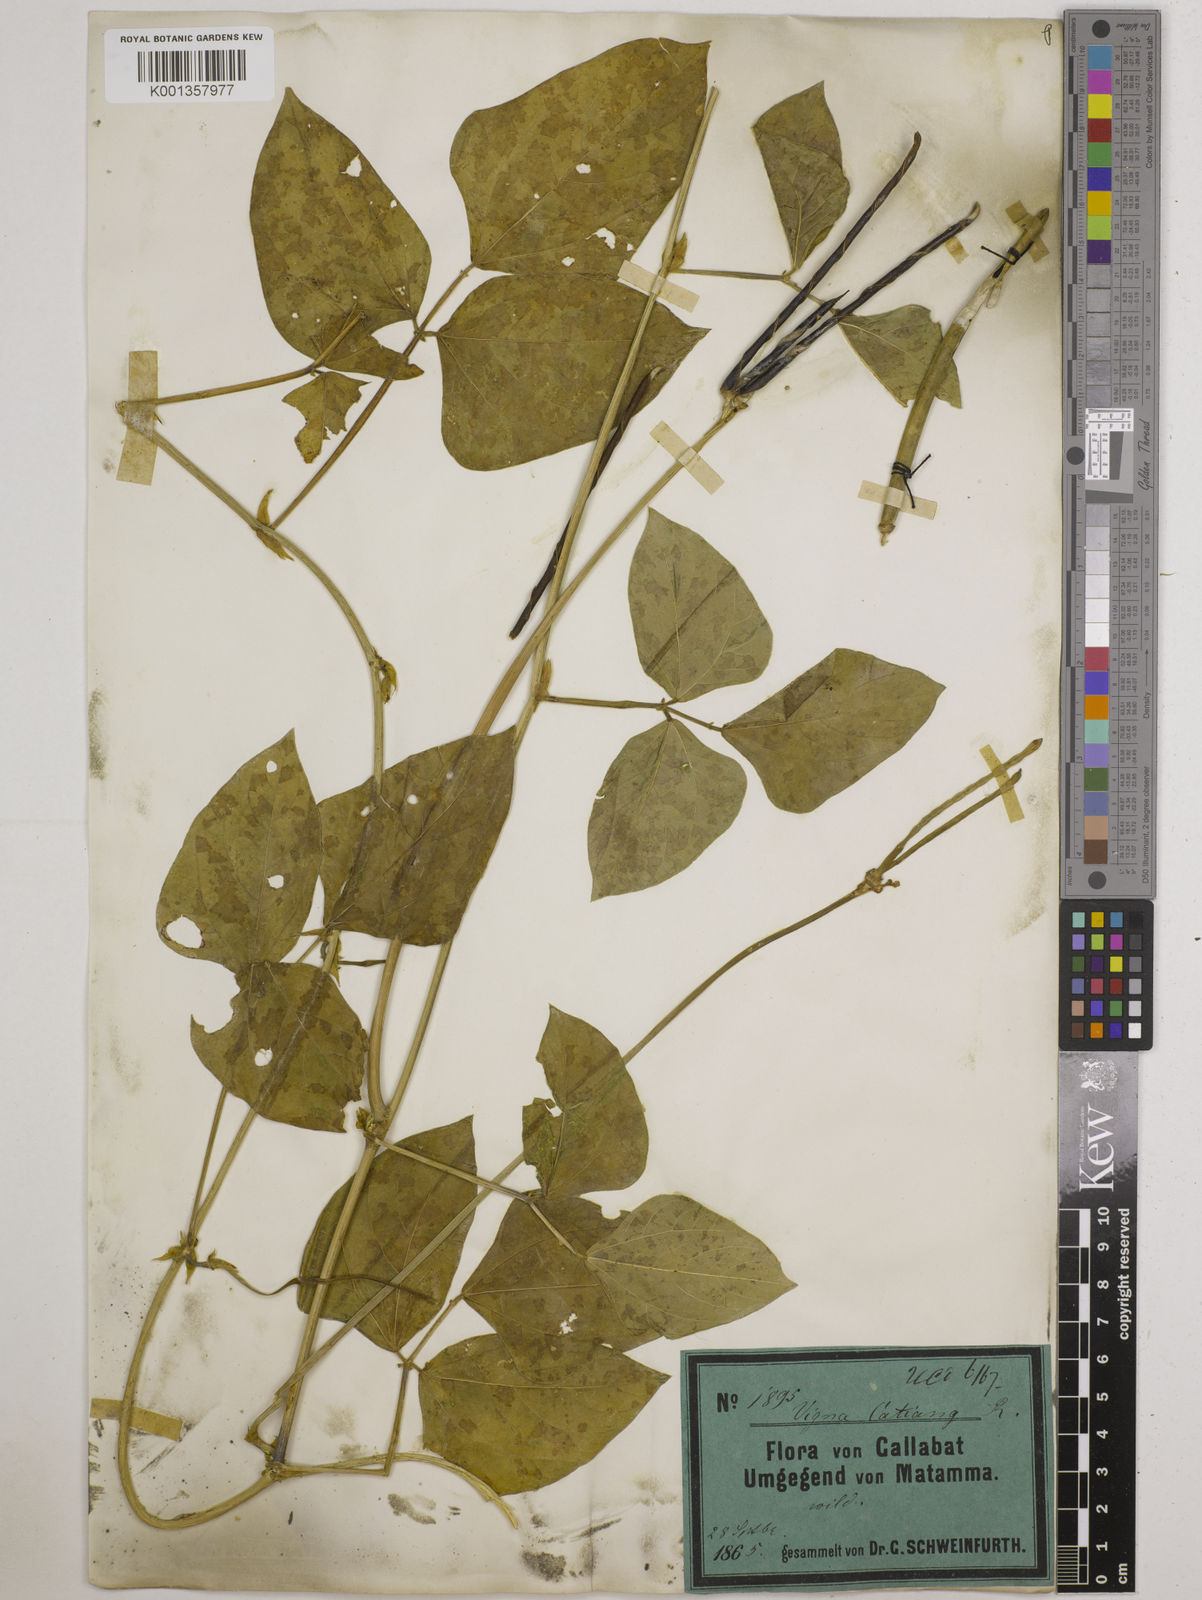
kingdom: Plantae
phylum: Tracheophyta
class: Magnoliopsida
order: Fabales
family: Fabaceae
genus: Vigna
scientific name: Vigna
